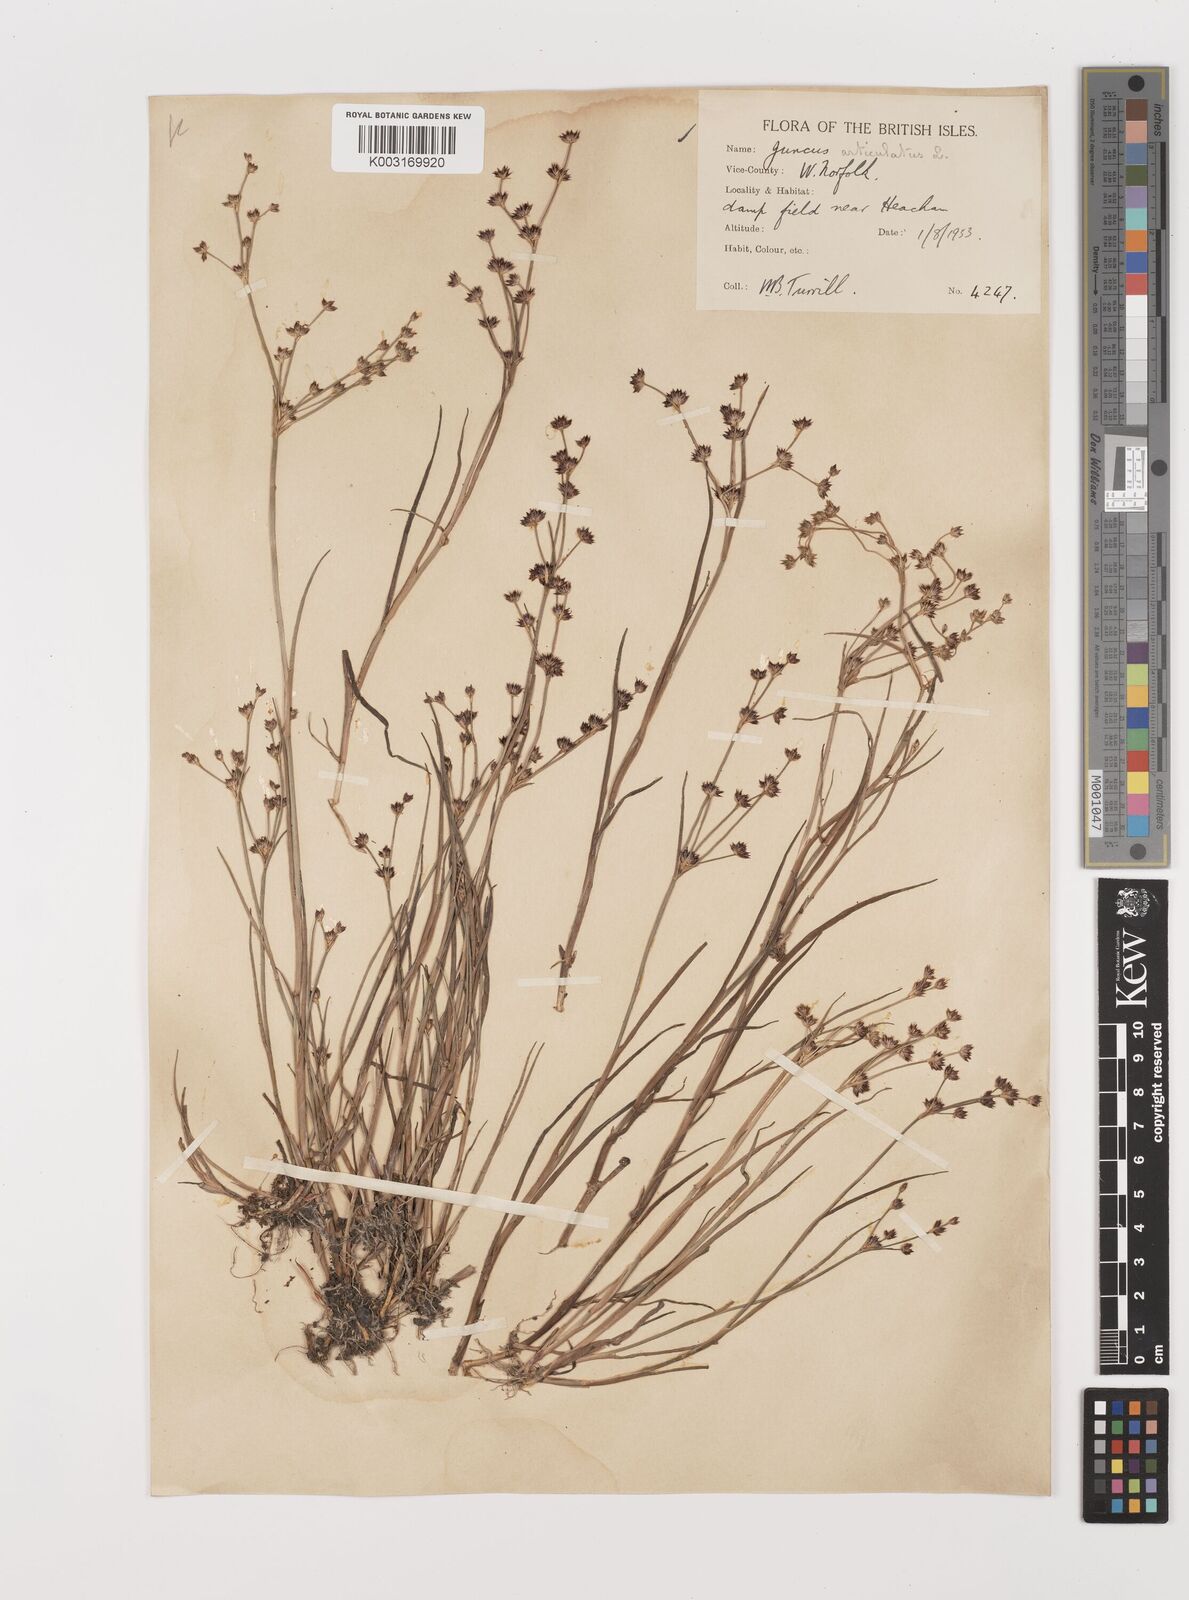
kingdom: Plantae
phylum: Tracheophyta
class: Liliopsida
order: Poales
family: Juncaceae
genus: Juncus
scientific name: Juncus articulatus
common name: Jointed rush
